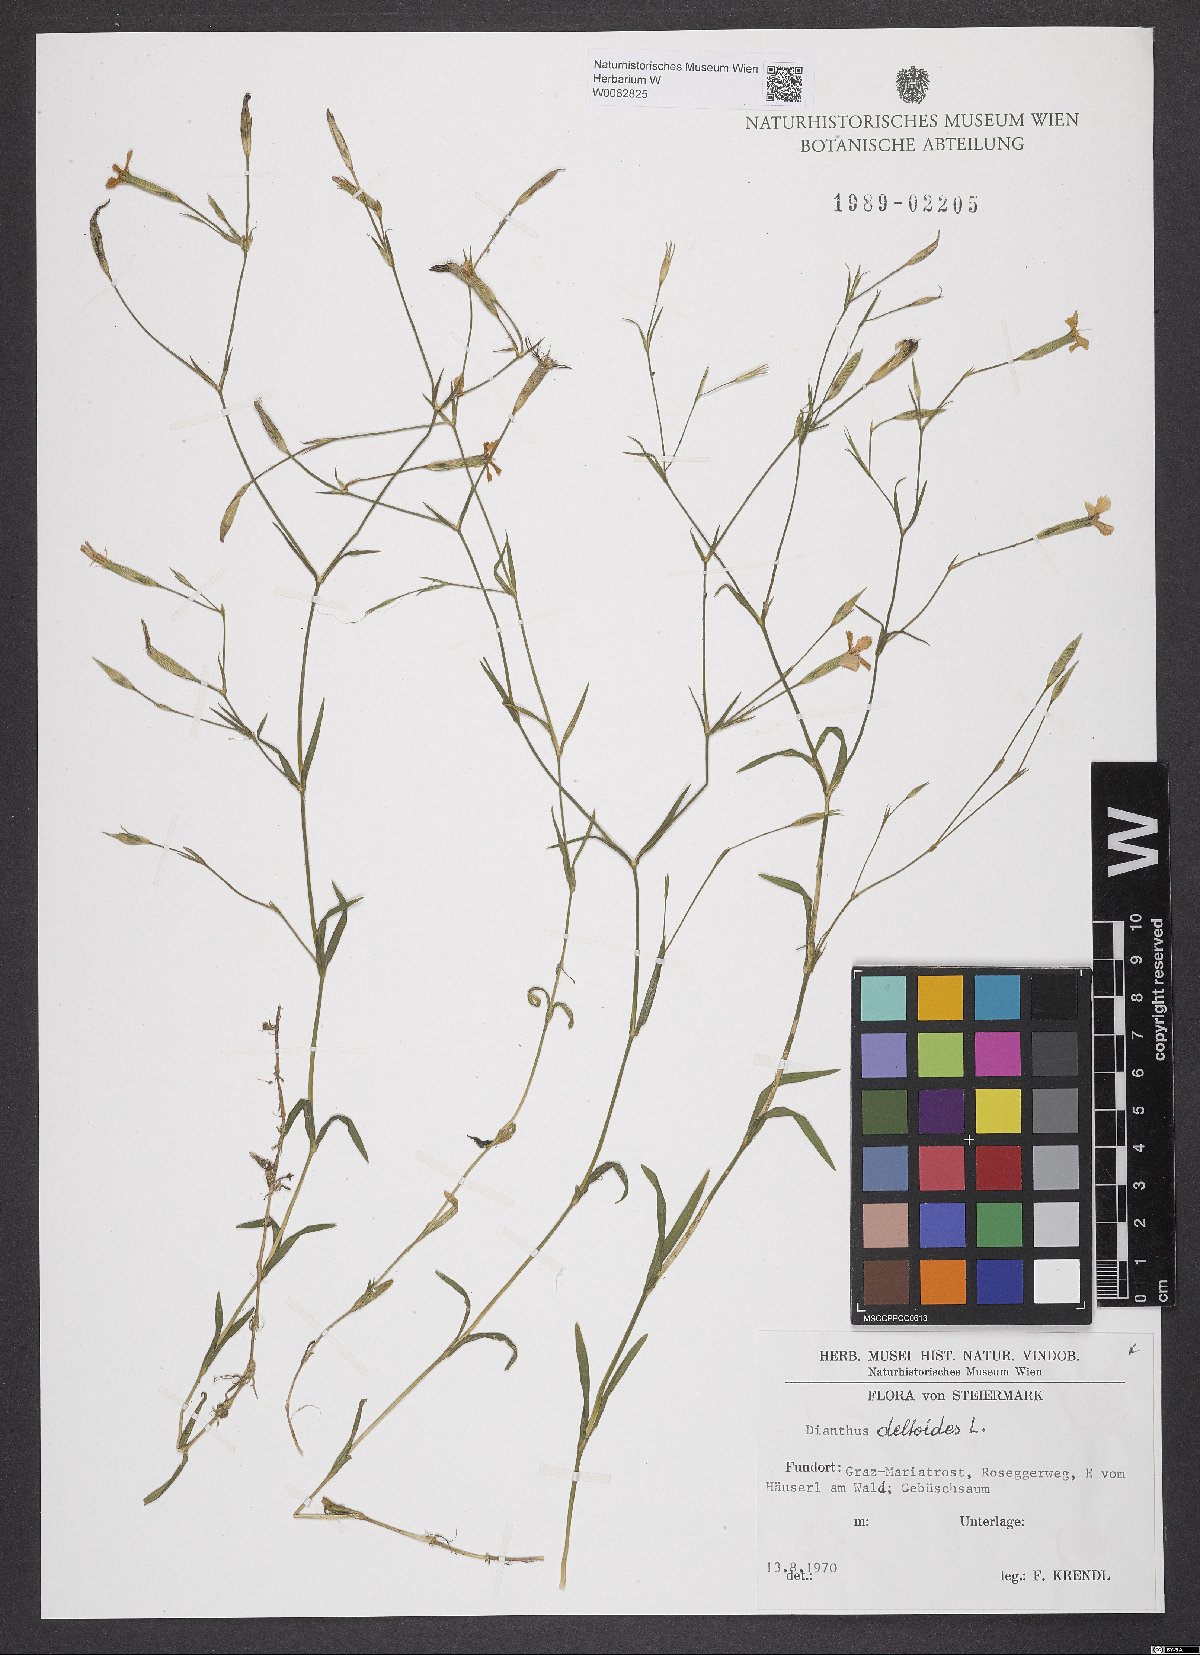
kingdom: Plantae
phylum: Tracheophyta
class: Magnoliopsida
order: Caryophyllales
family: Caryophyllaceae
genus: Dianthus
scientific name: Dianthus deltoides
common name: Maiden pink
